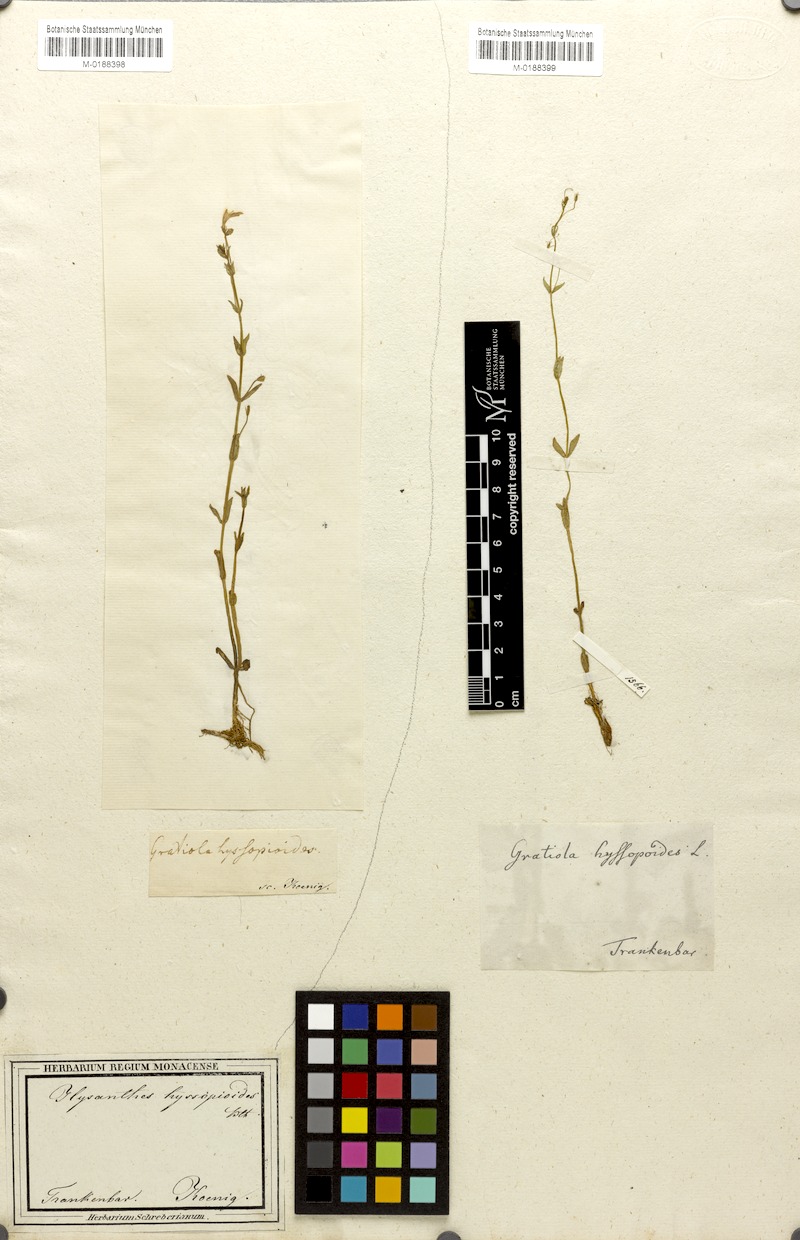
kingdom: Plantae
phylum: Tracheophyta
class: Magnoliopsida
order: Lamiales
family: Linderniaceae
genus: Lindernia
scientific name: Lindernia hyssopoides
